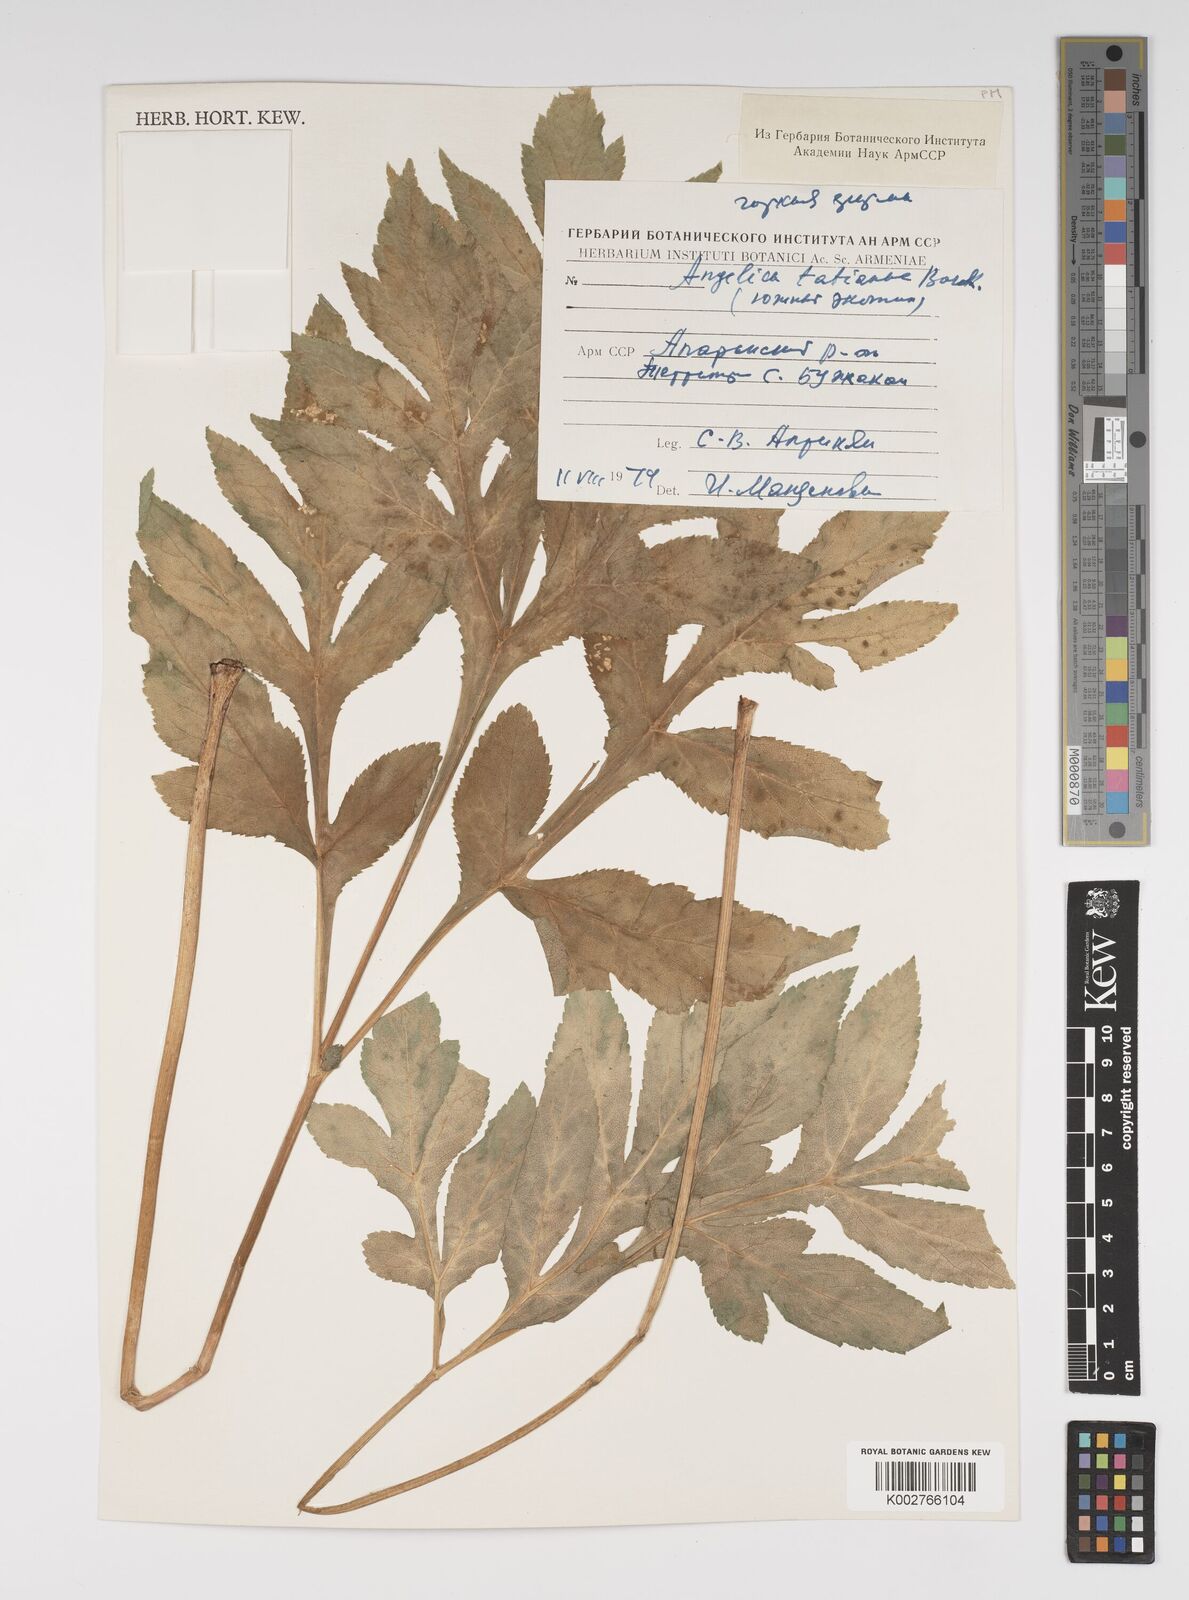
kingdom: Plantae
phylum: Tracheophyta
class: Magnoliopsida
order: Apiales
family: Apiaceae
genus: Angelica
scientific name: Angelica sylvestris
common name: Wild angelica
